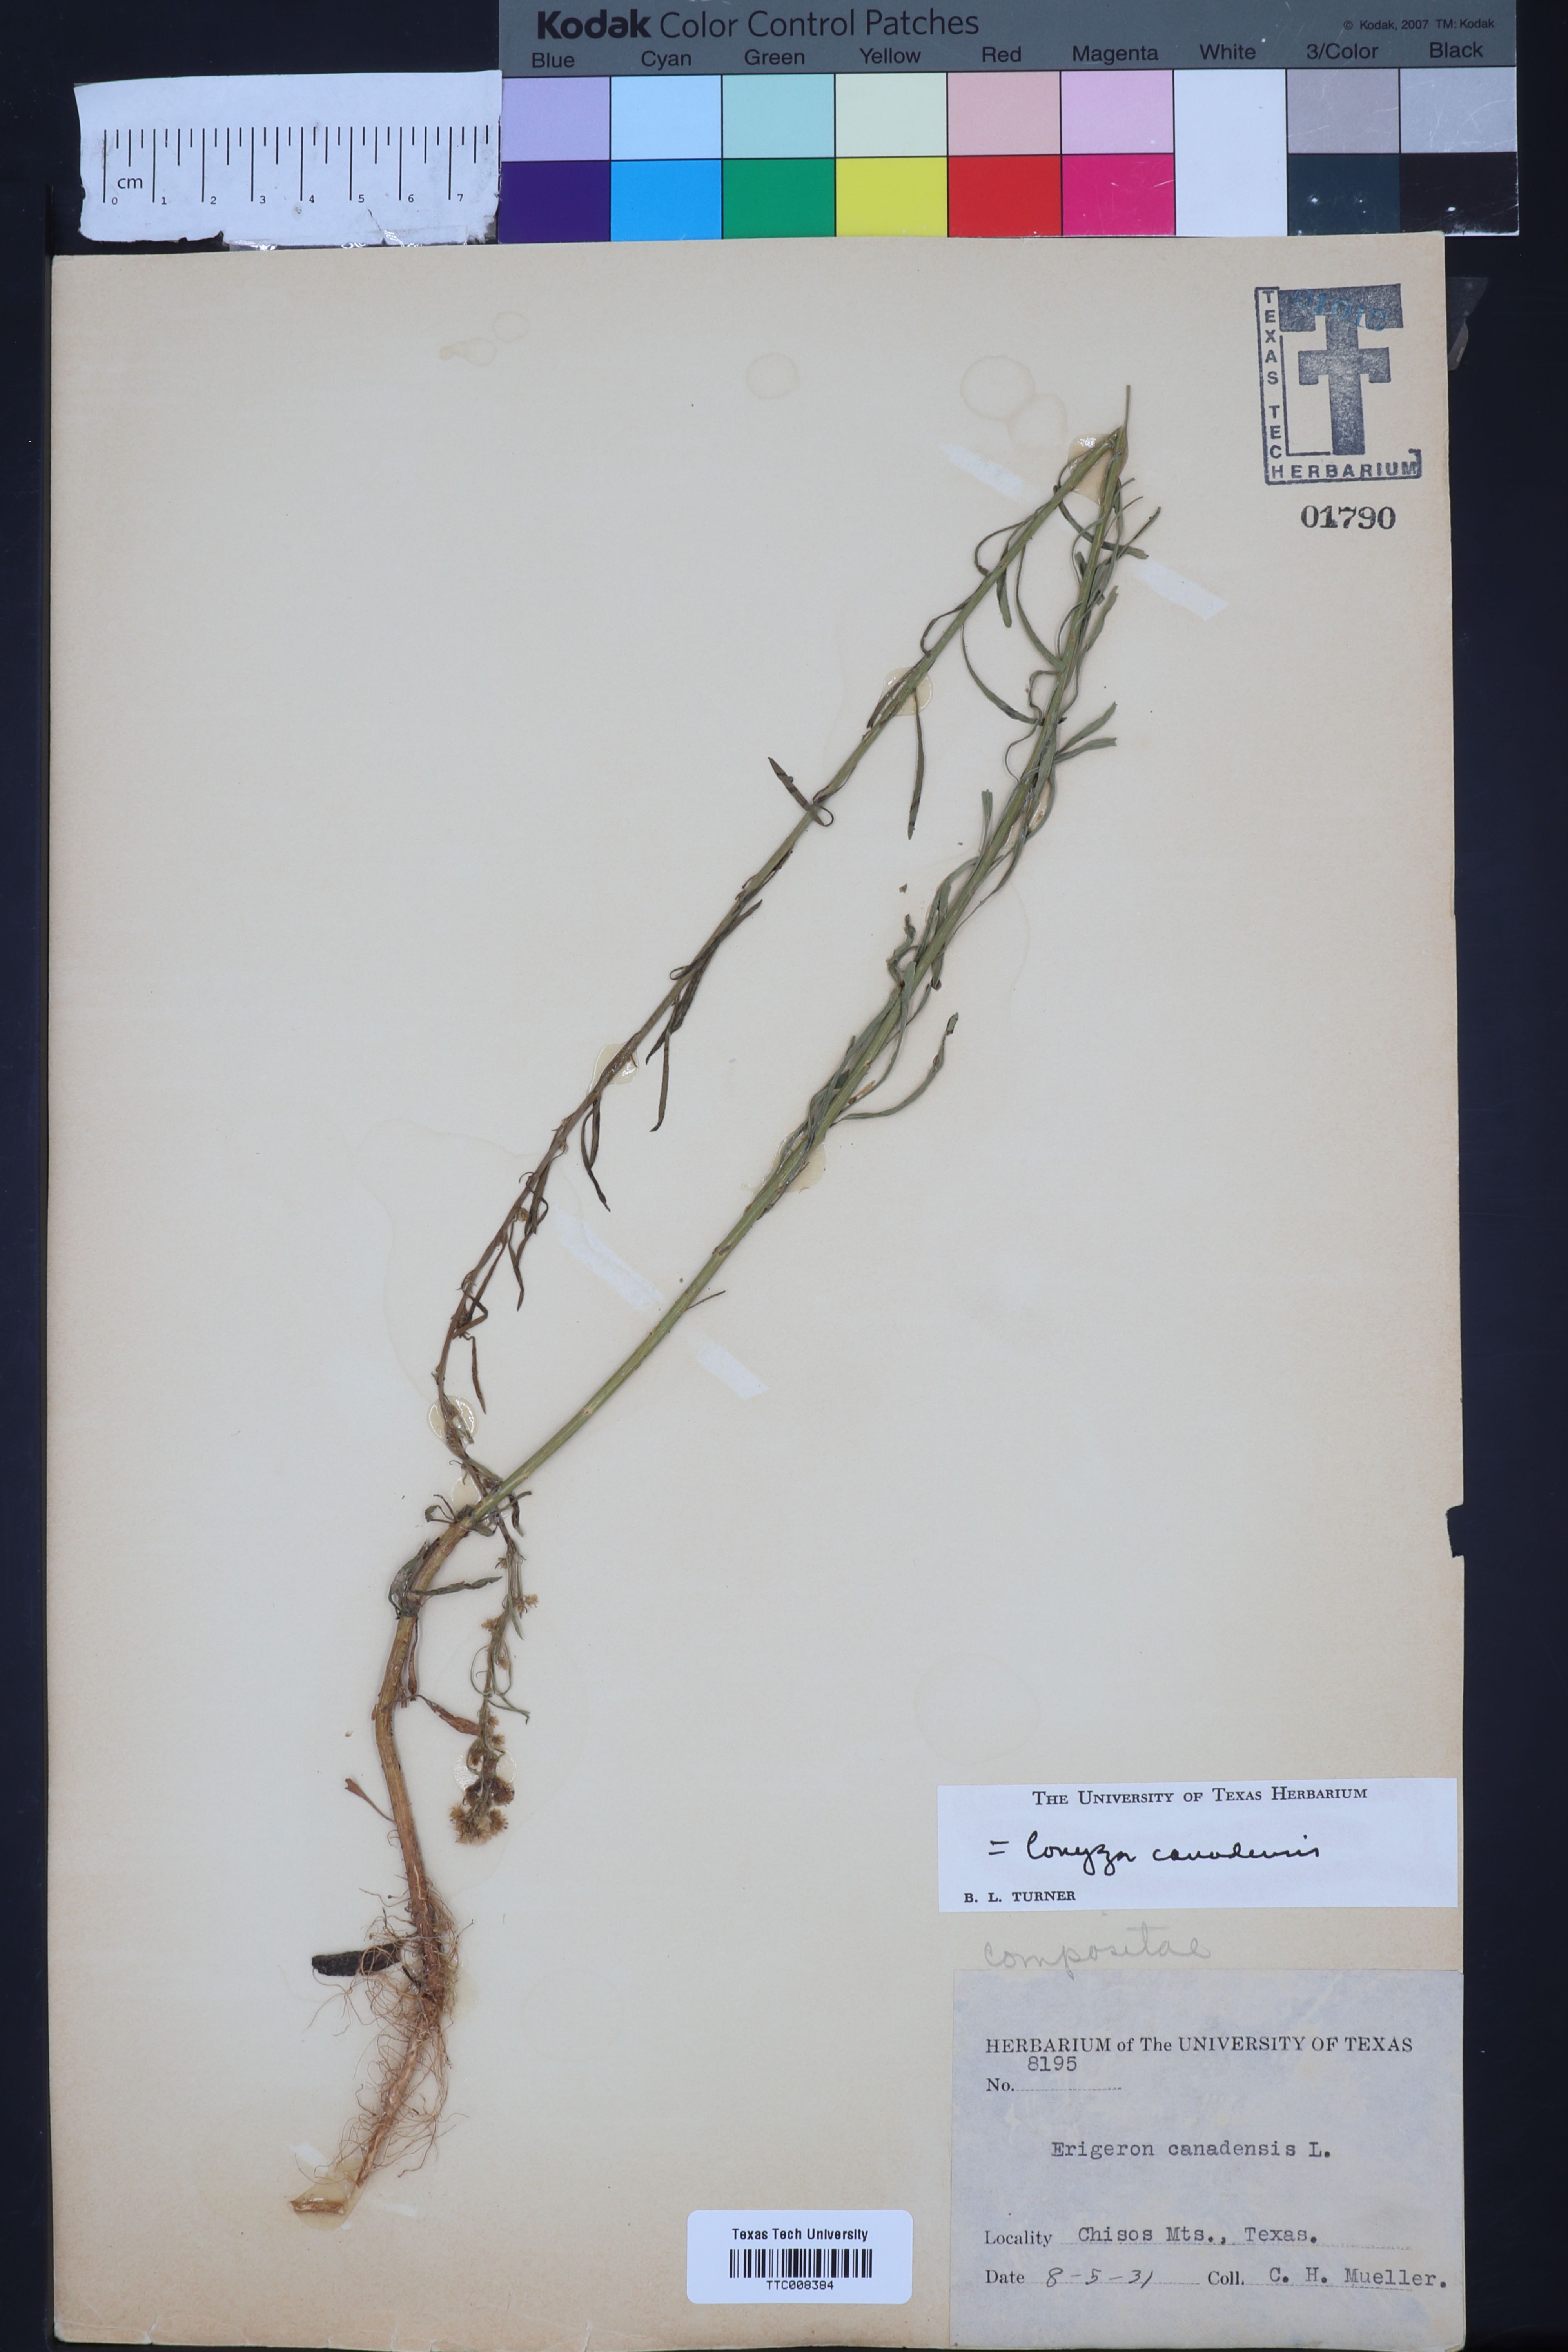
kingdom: Plantae
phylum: Tracheophyta
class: Magnoliopsida
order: Asterales
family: Asteraceae
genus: Erigeron
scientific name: Erigeron canadensis
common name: Canadian fleabane
